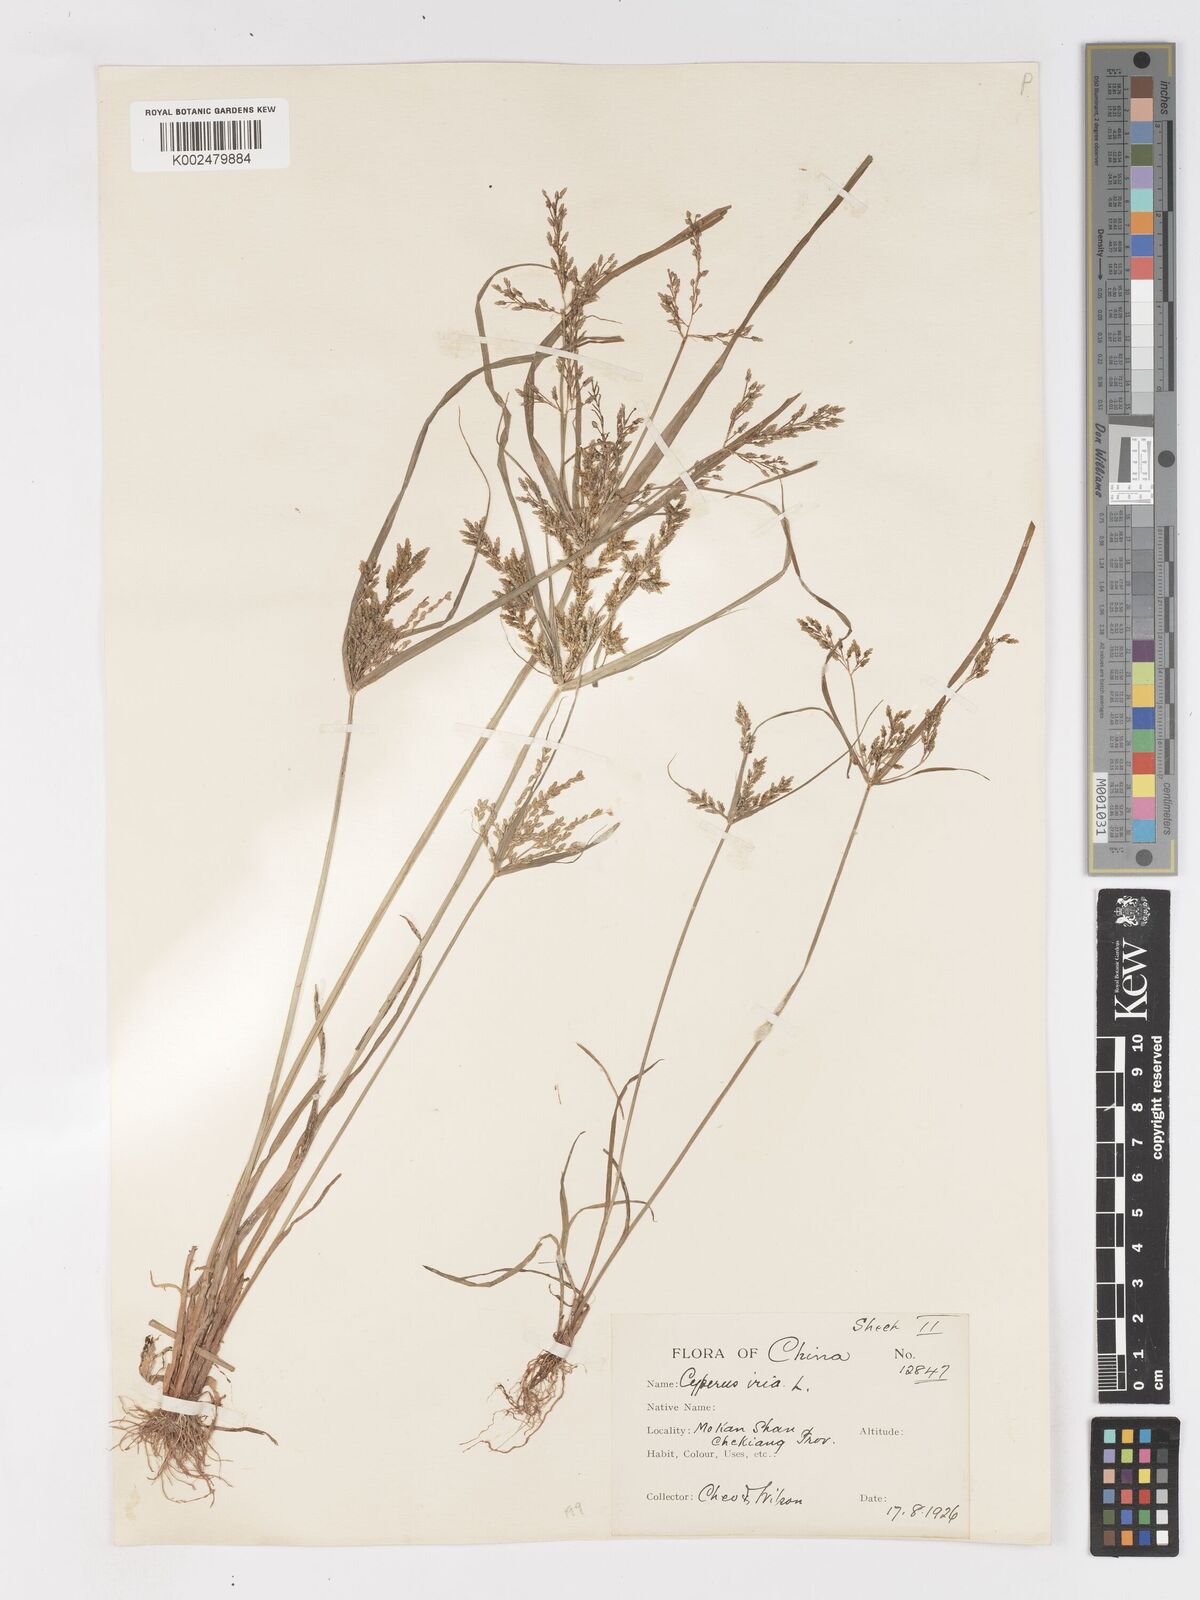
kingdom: Plantae
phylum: Tracheophyta
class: Liliopsida
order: Poales
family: Cyperaceae
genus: Cyperus
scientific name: Cyperus iria
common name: Ricefield flatsedge
